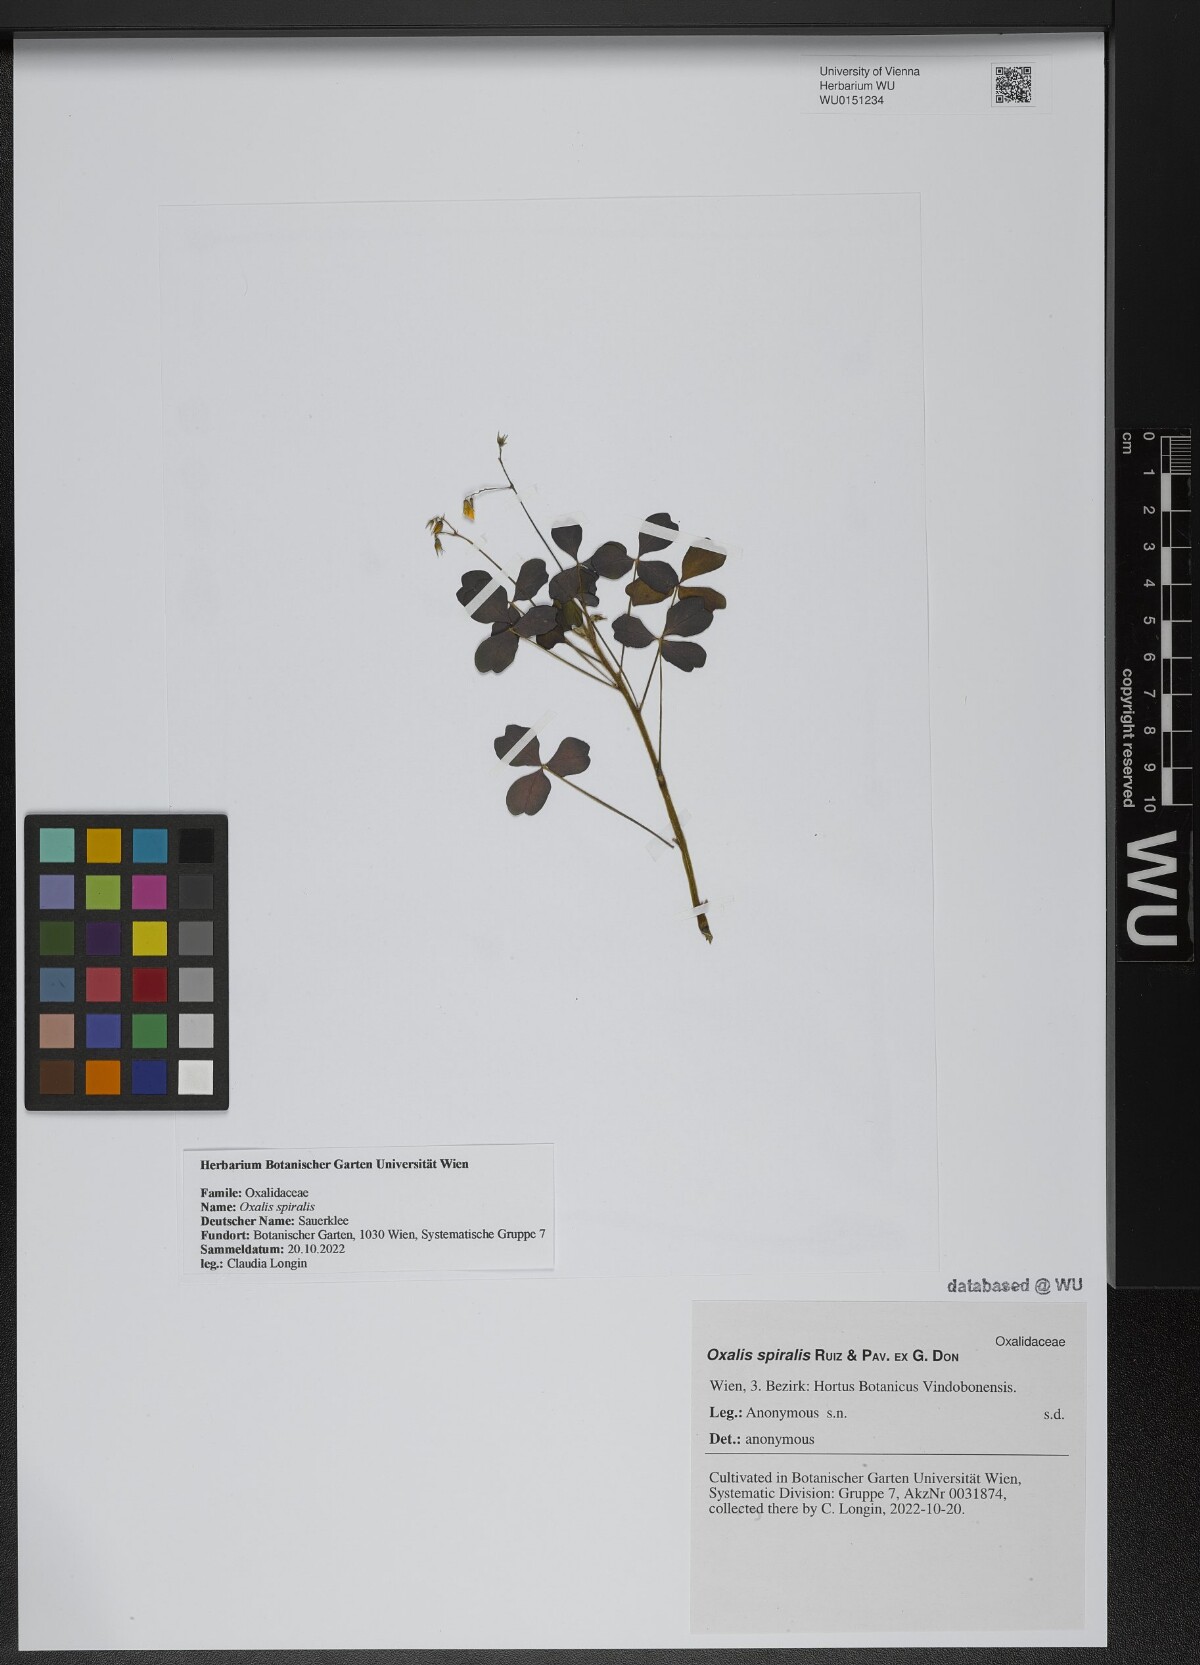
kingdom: Plantae
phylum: Tracheophyta
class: Magnoliopsida
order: Oxalidales
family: Oxalidaceae
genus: Oxalis
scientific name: Oxalis spiralis
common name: Spiral sorrel
